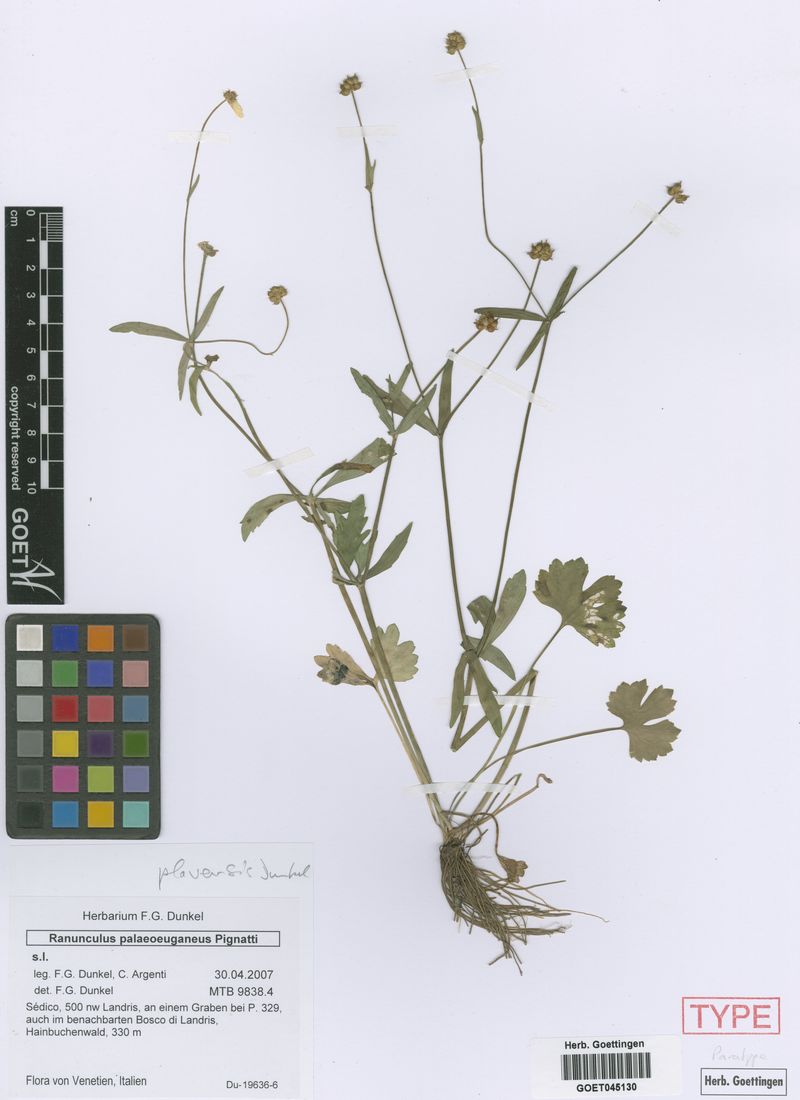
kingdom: Plantae
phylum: Tracheophyta
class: Magnoliopsida
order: Ranunculales
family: Ranunculaceae
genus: Ranunculus
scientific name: Ranunculus palaeoeuganeus
